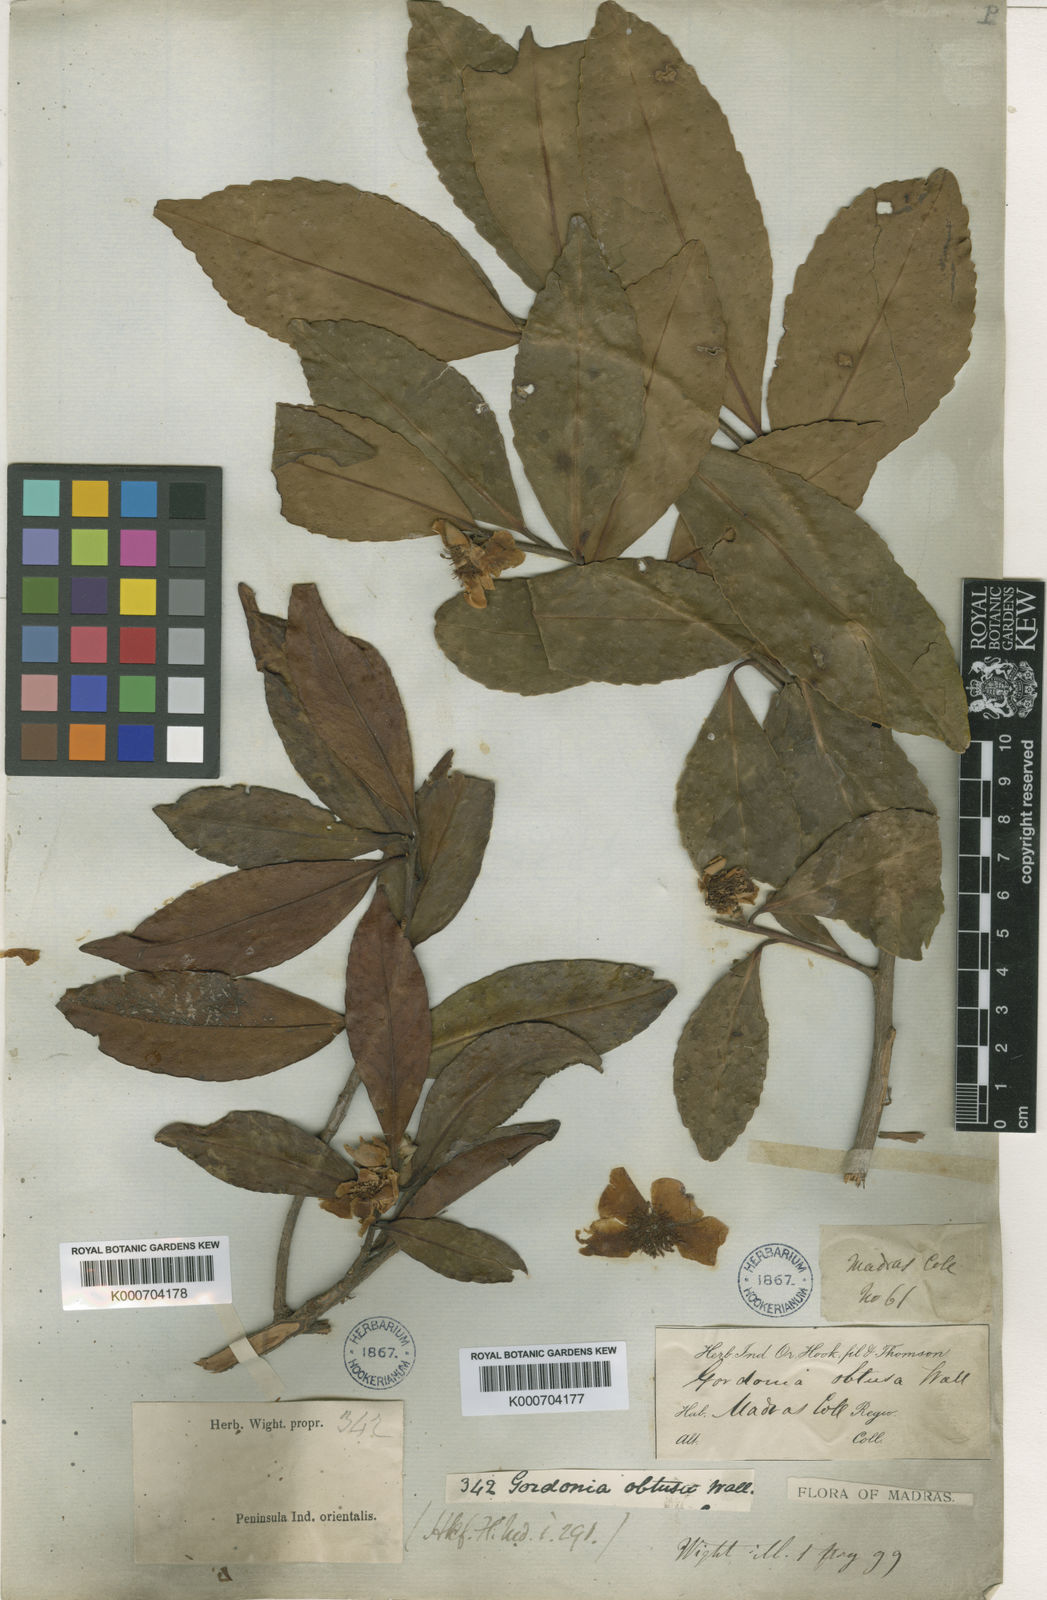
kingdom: Plantae
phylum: Tracheophyta
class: Magnoliopsida
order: Ericales
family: Theaceae
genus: Gordonia
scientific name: Gordonia
